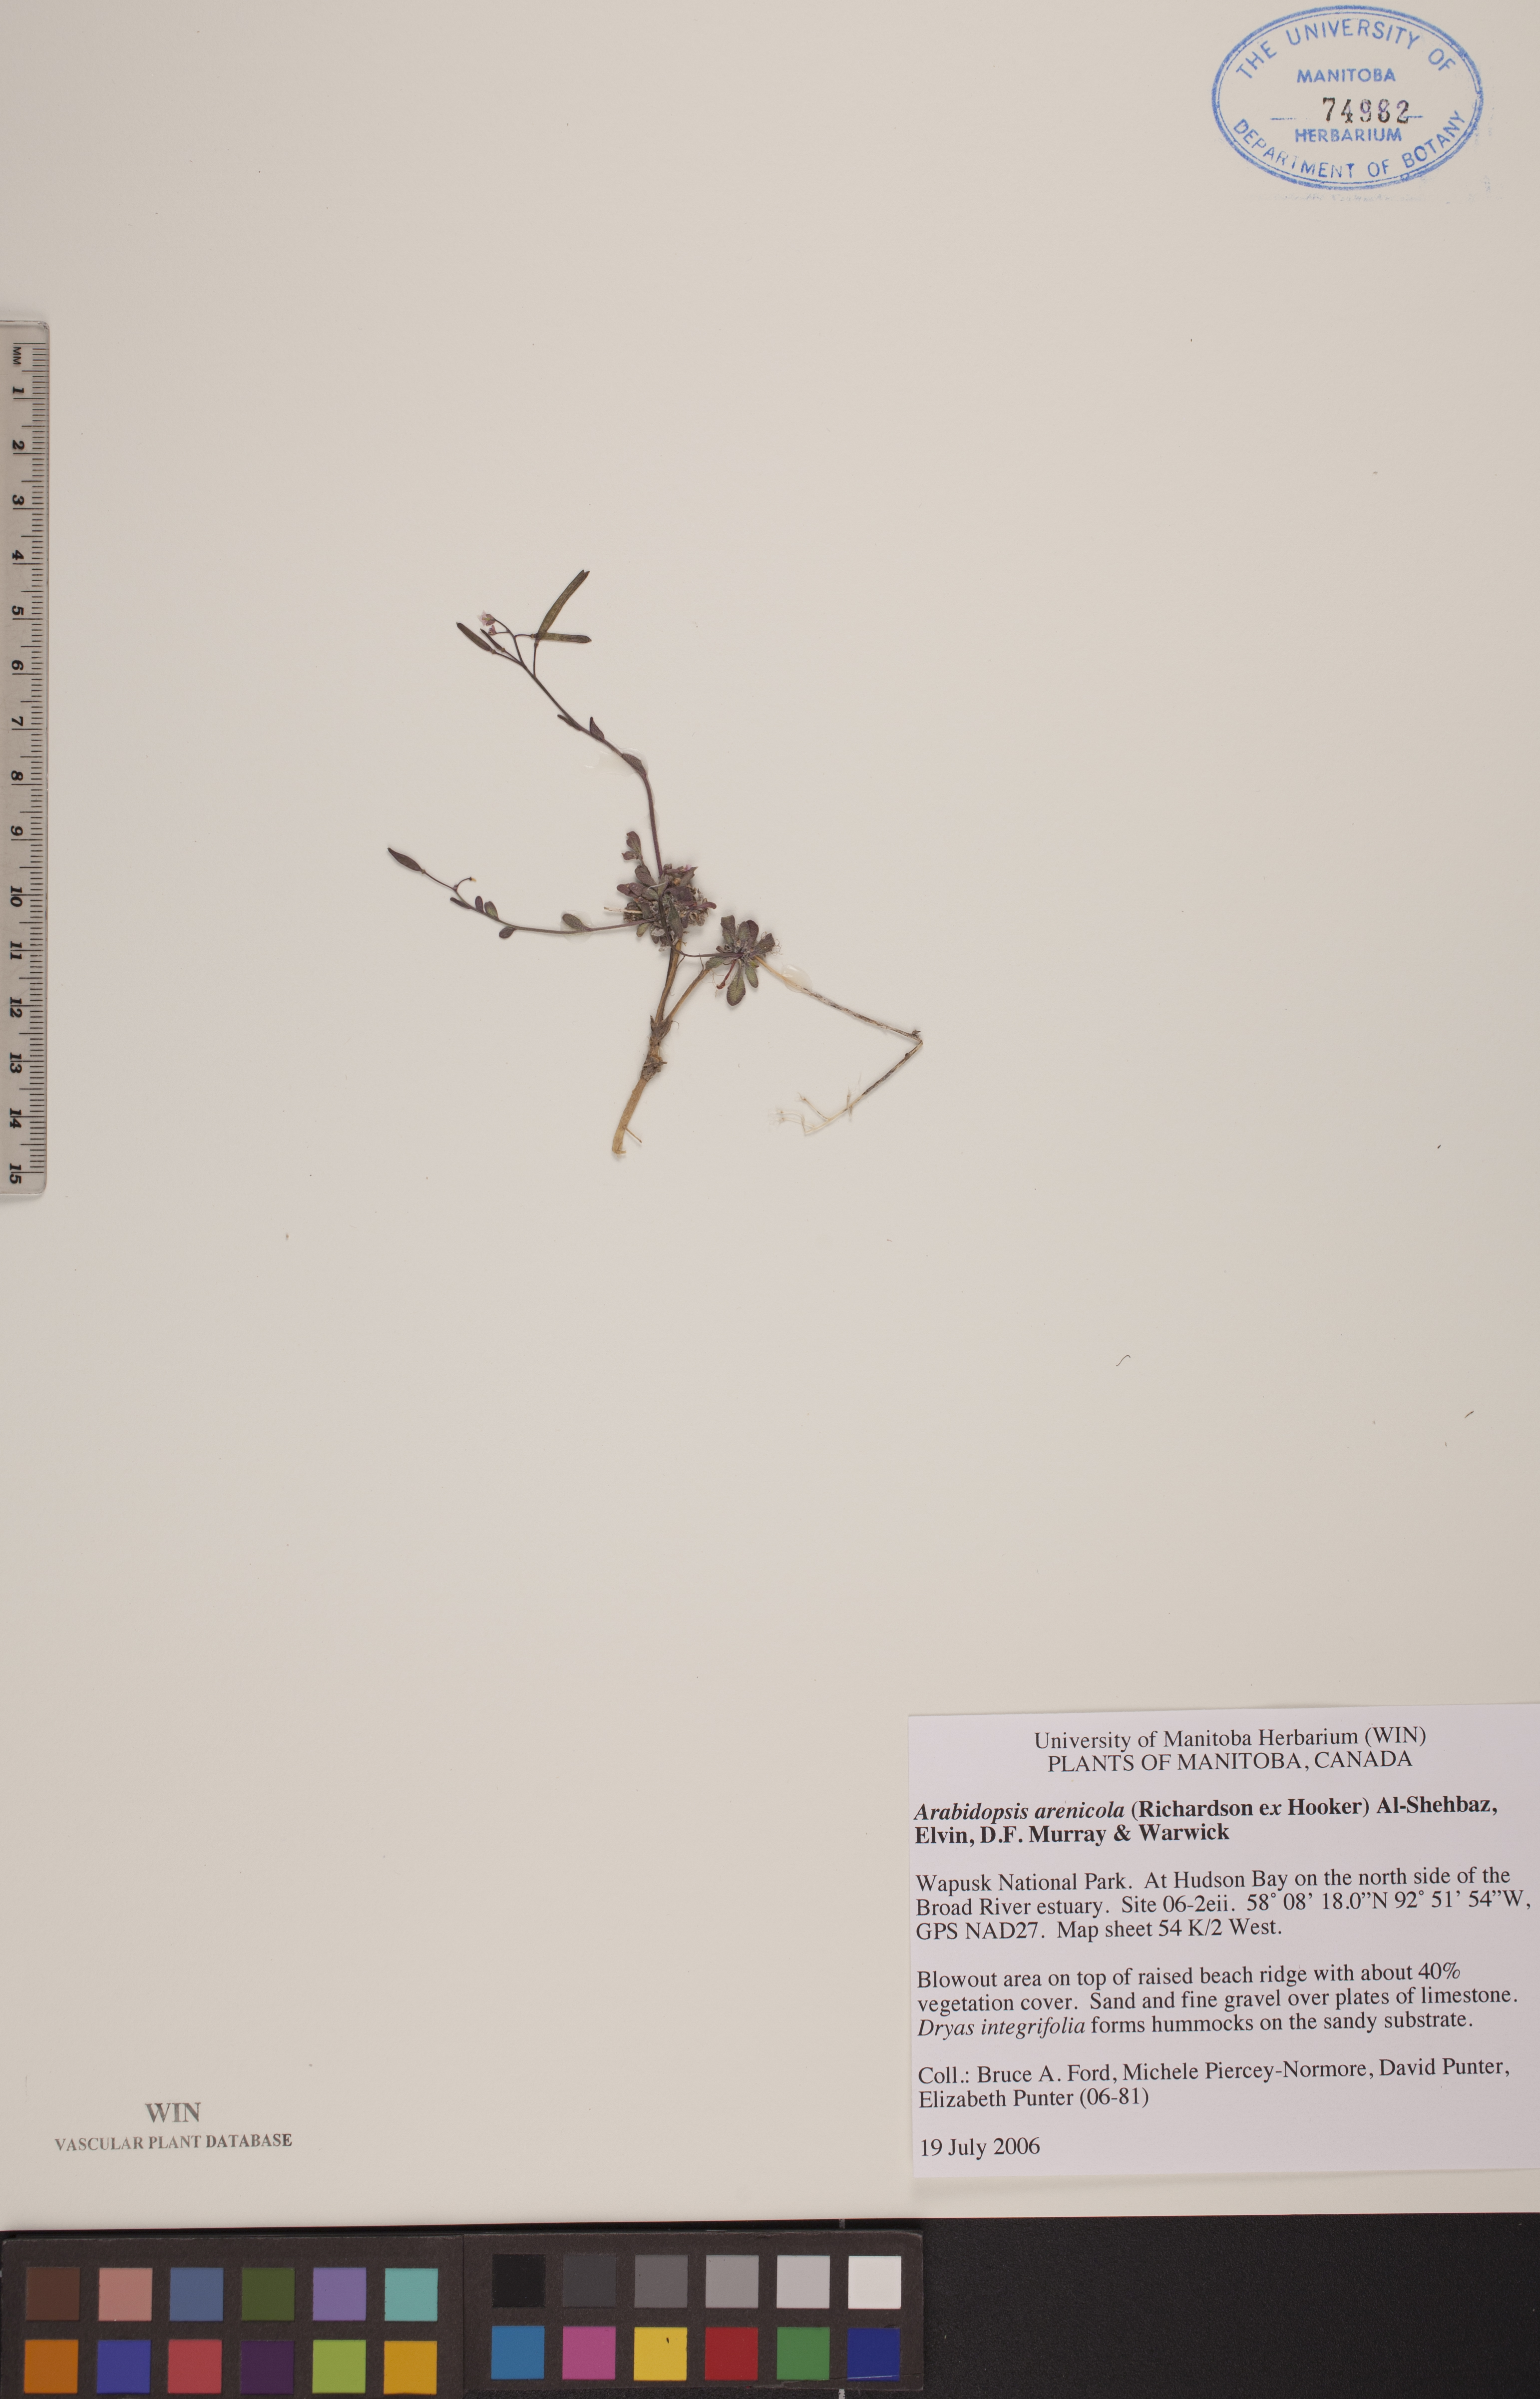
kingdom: Plantae
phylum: Tracheophyta
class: Magnoliopsida
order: Brassicales
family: Brassicaceae
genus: Arabidopsis
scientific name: Arabidopsis arenicola
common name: Arctic rockcress
